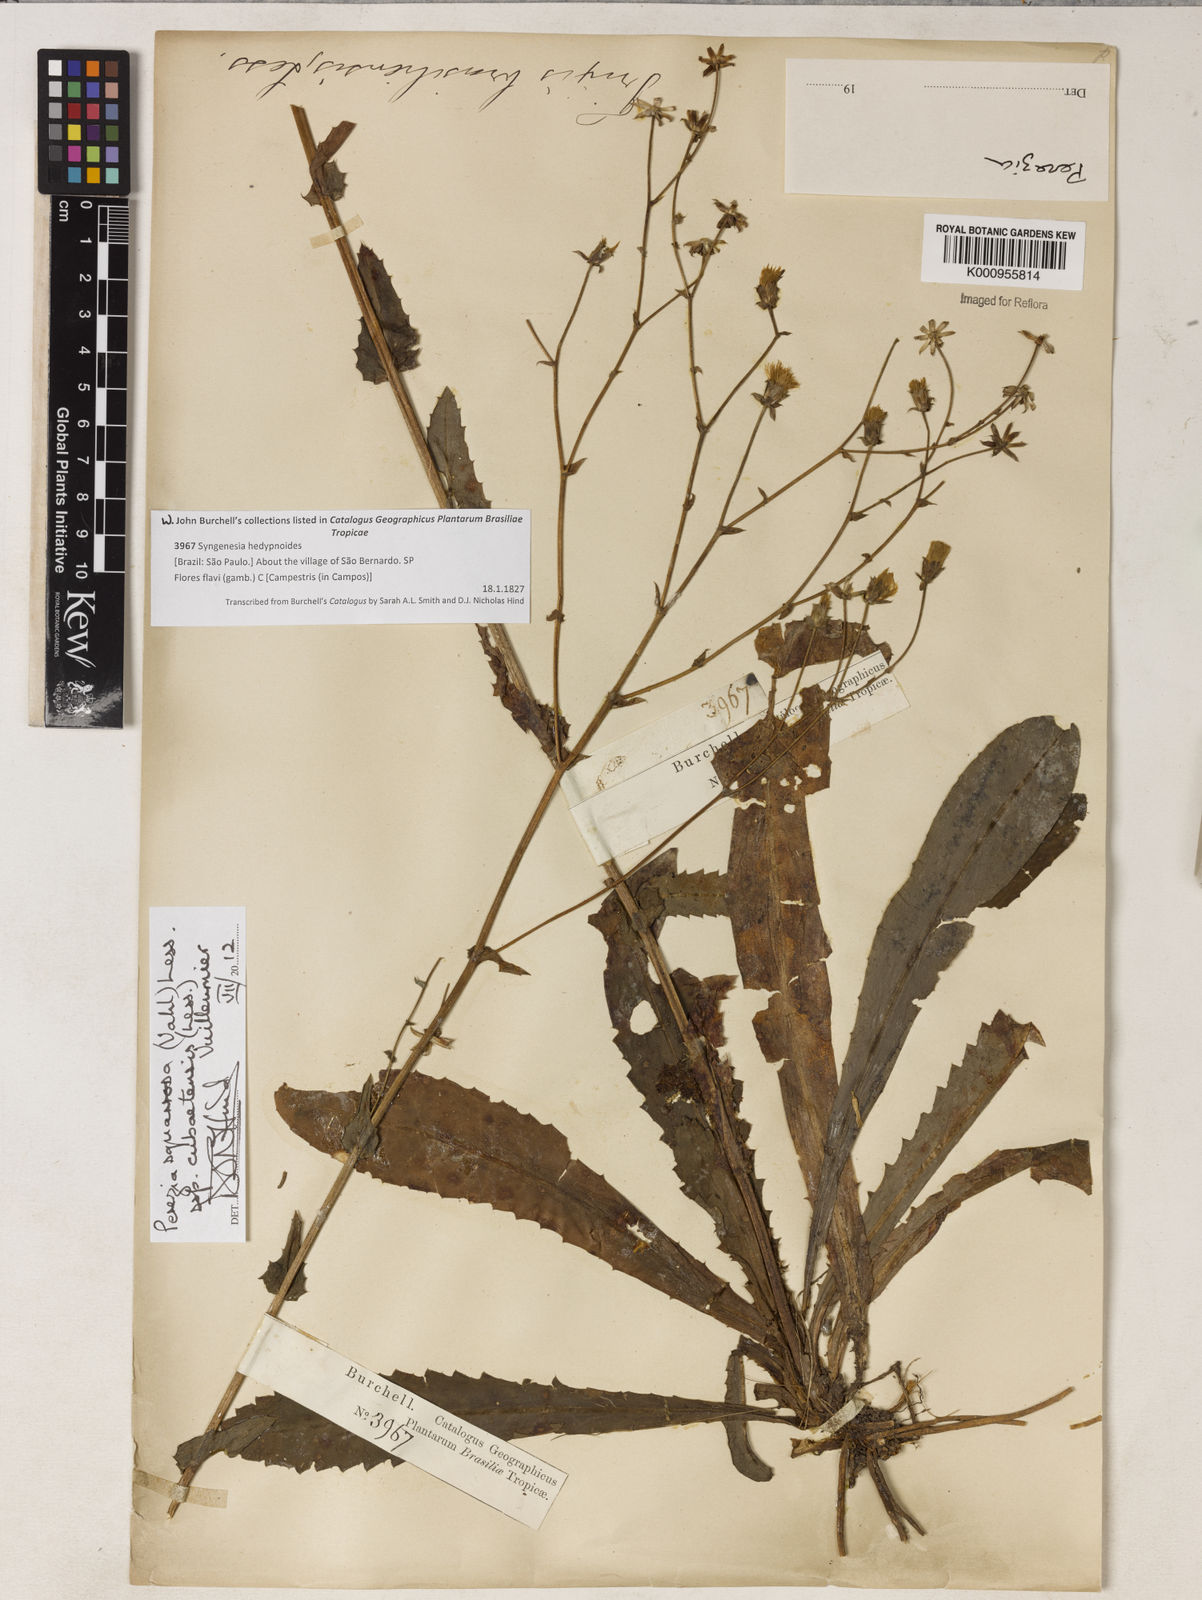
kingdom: Plantae
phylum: Tracheophyta
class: Magnoliopsida
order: Asterales
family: Asteraceae
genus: Perezia
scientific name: Perezia squarrosa
